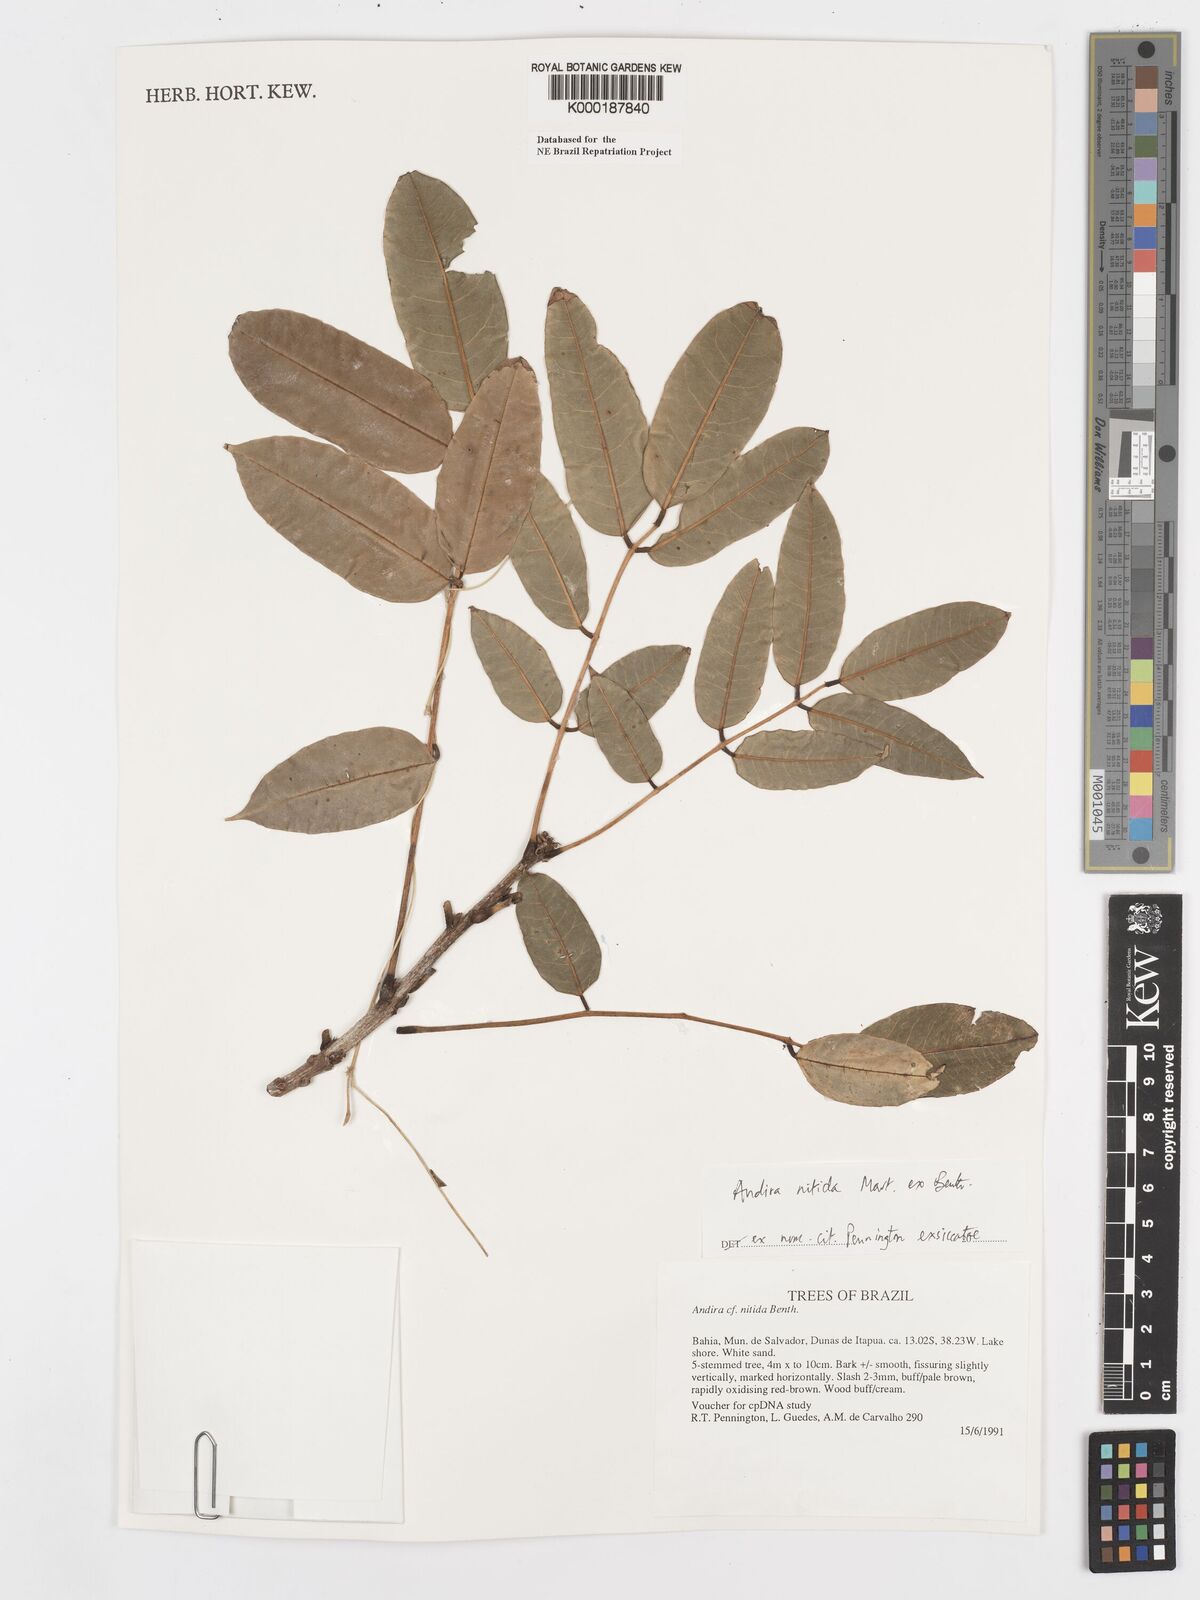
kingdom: Plantae
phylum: Tracheophyta
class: Magnoliopsida
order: Fabales
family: Fabaceae
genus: Andira
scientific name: Andira nitida
